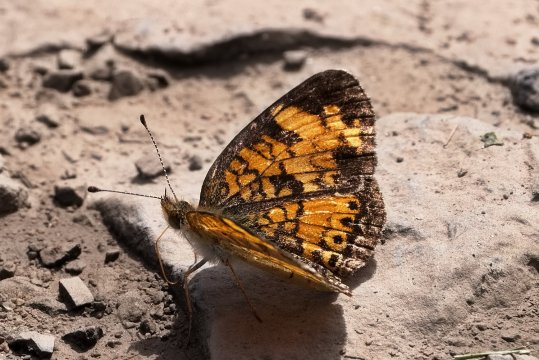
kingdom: Animalia
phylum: Arthropoda
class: Insecta
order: Lepidoptera
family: Nymphalidae
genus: Phyciodes
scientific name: Phyciodes tharos
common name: Pearl Crescent
